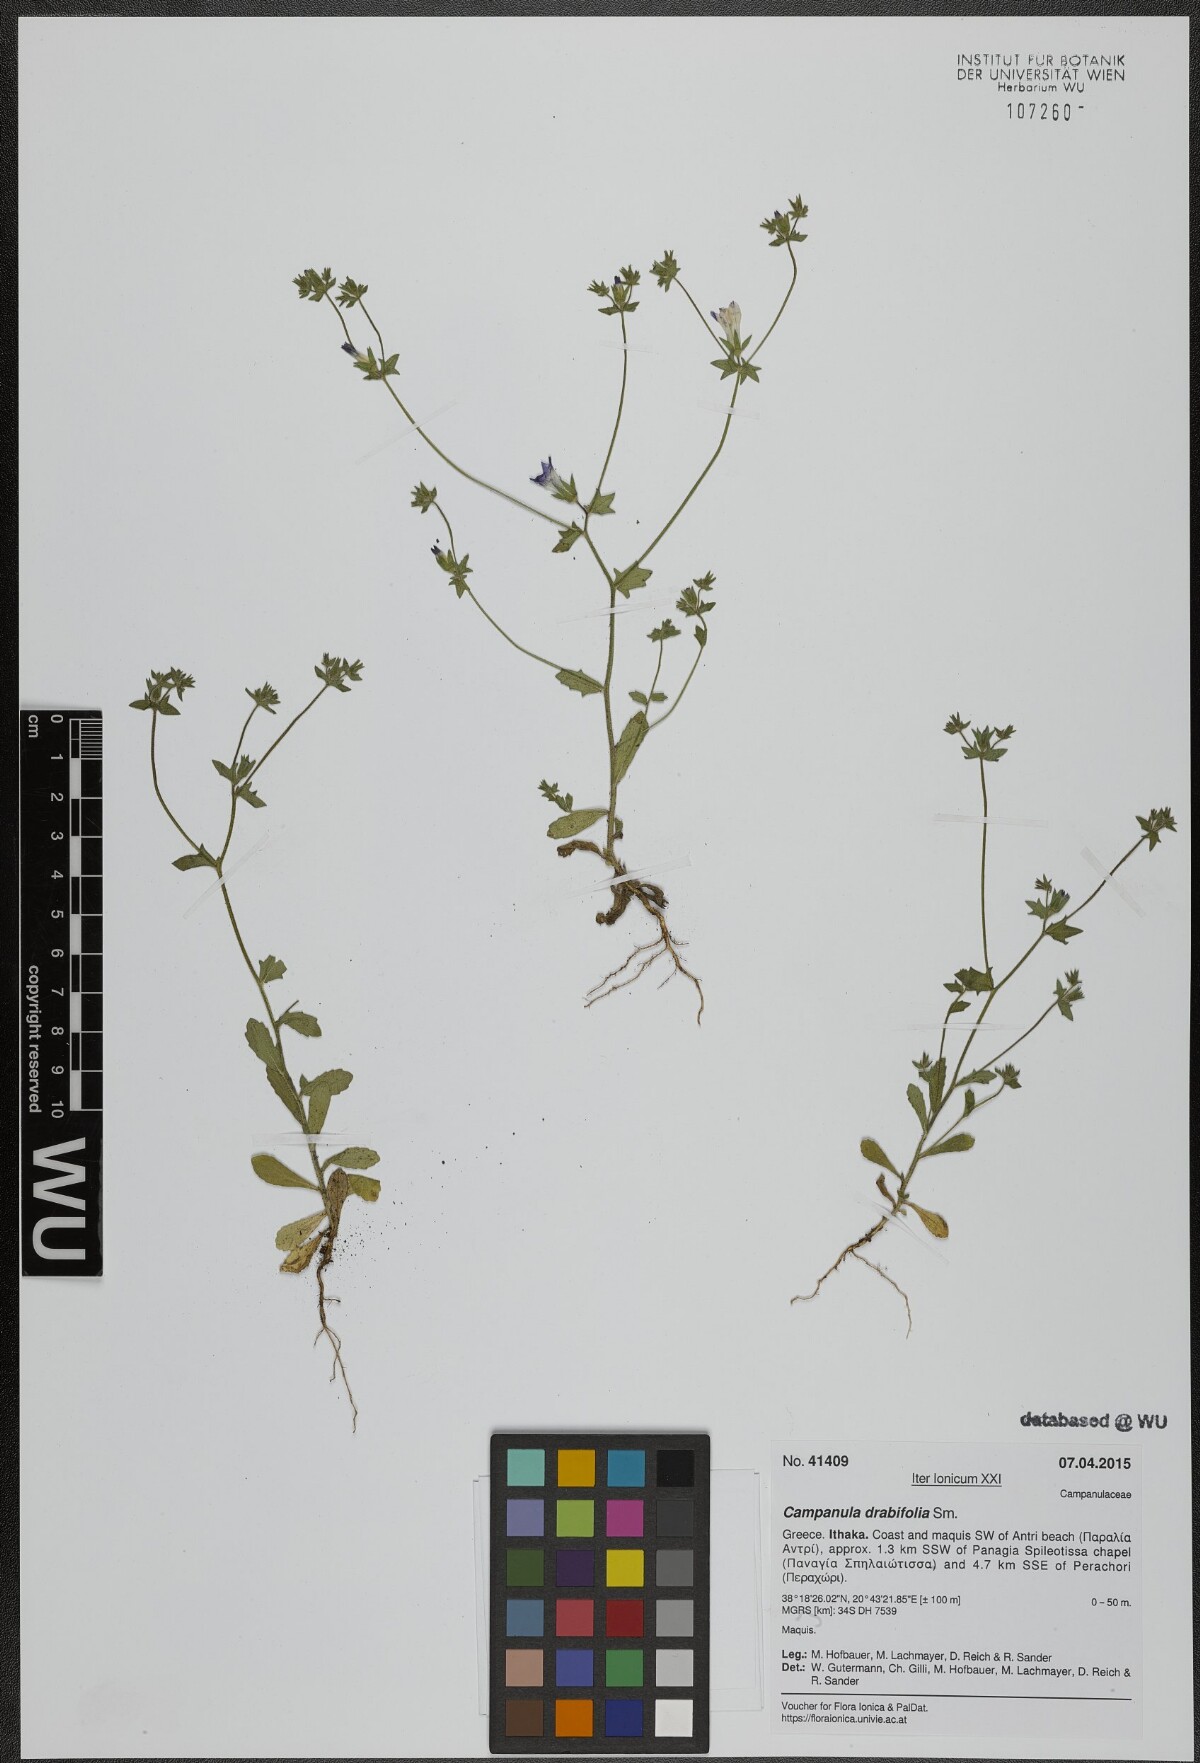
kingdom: Plantae
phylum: Tracheophyta
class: Magnoliopsida
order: Asterales
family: Campanulaceae
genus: Campanula
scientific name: Campanula drabifolia
